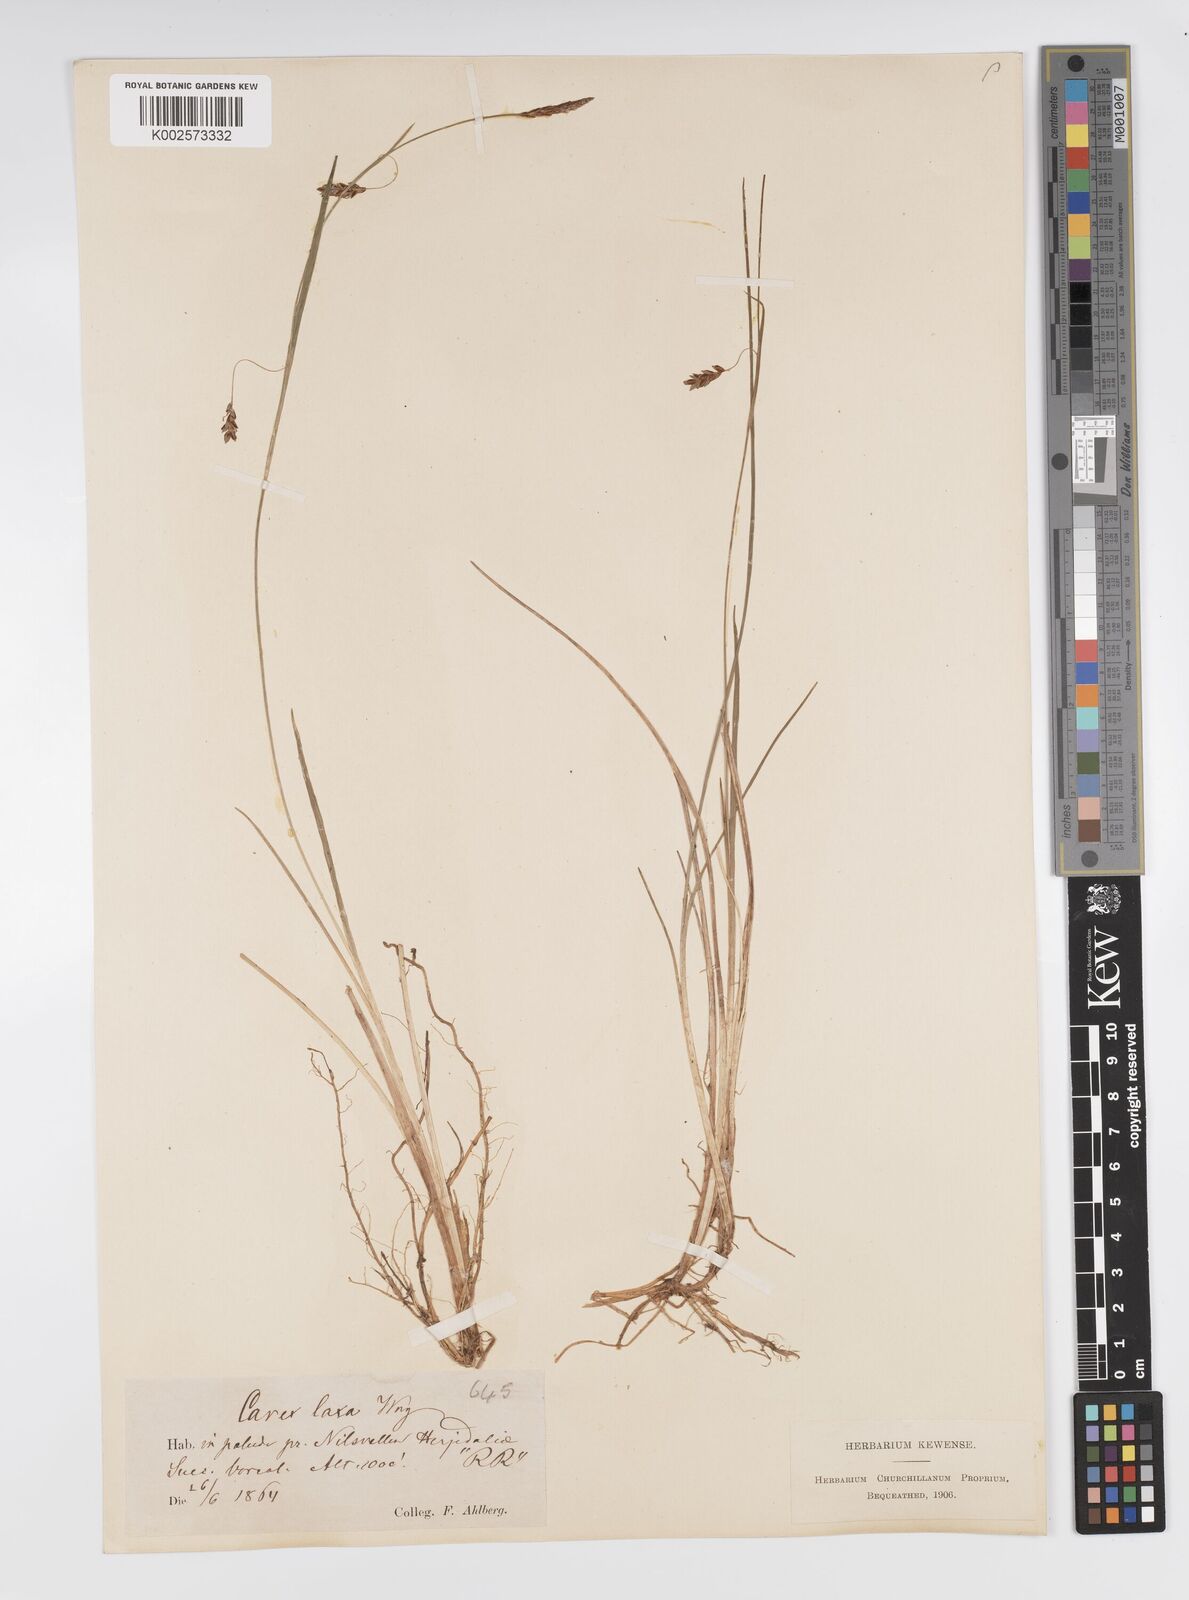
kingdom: Plantae
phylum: Tracheophyta
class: Liliopsida
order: Poales
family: Cyperaceae
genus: Carex
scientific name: Carex laxa
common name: Weak sedge
